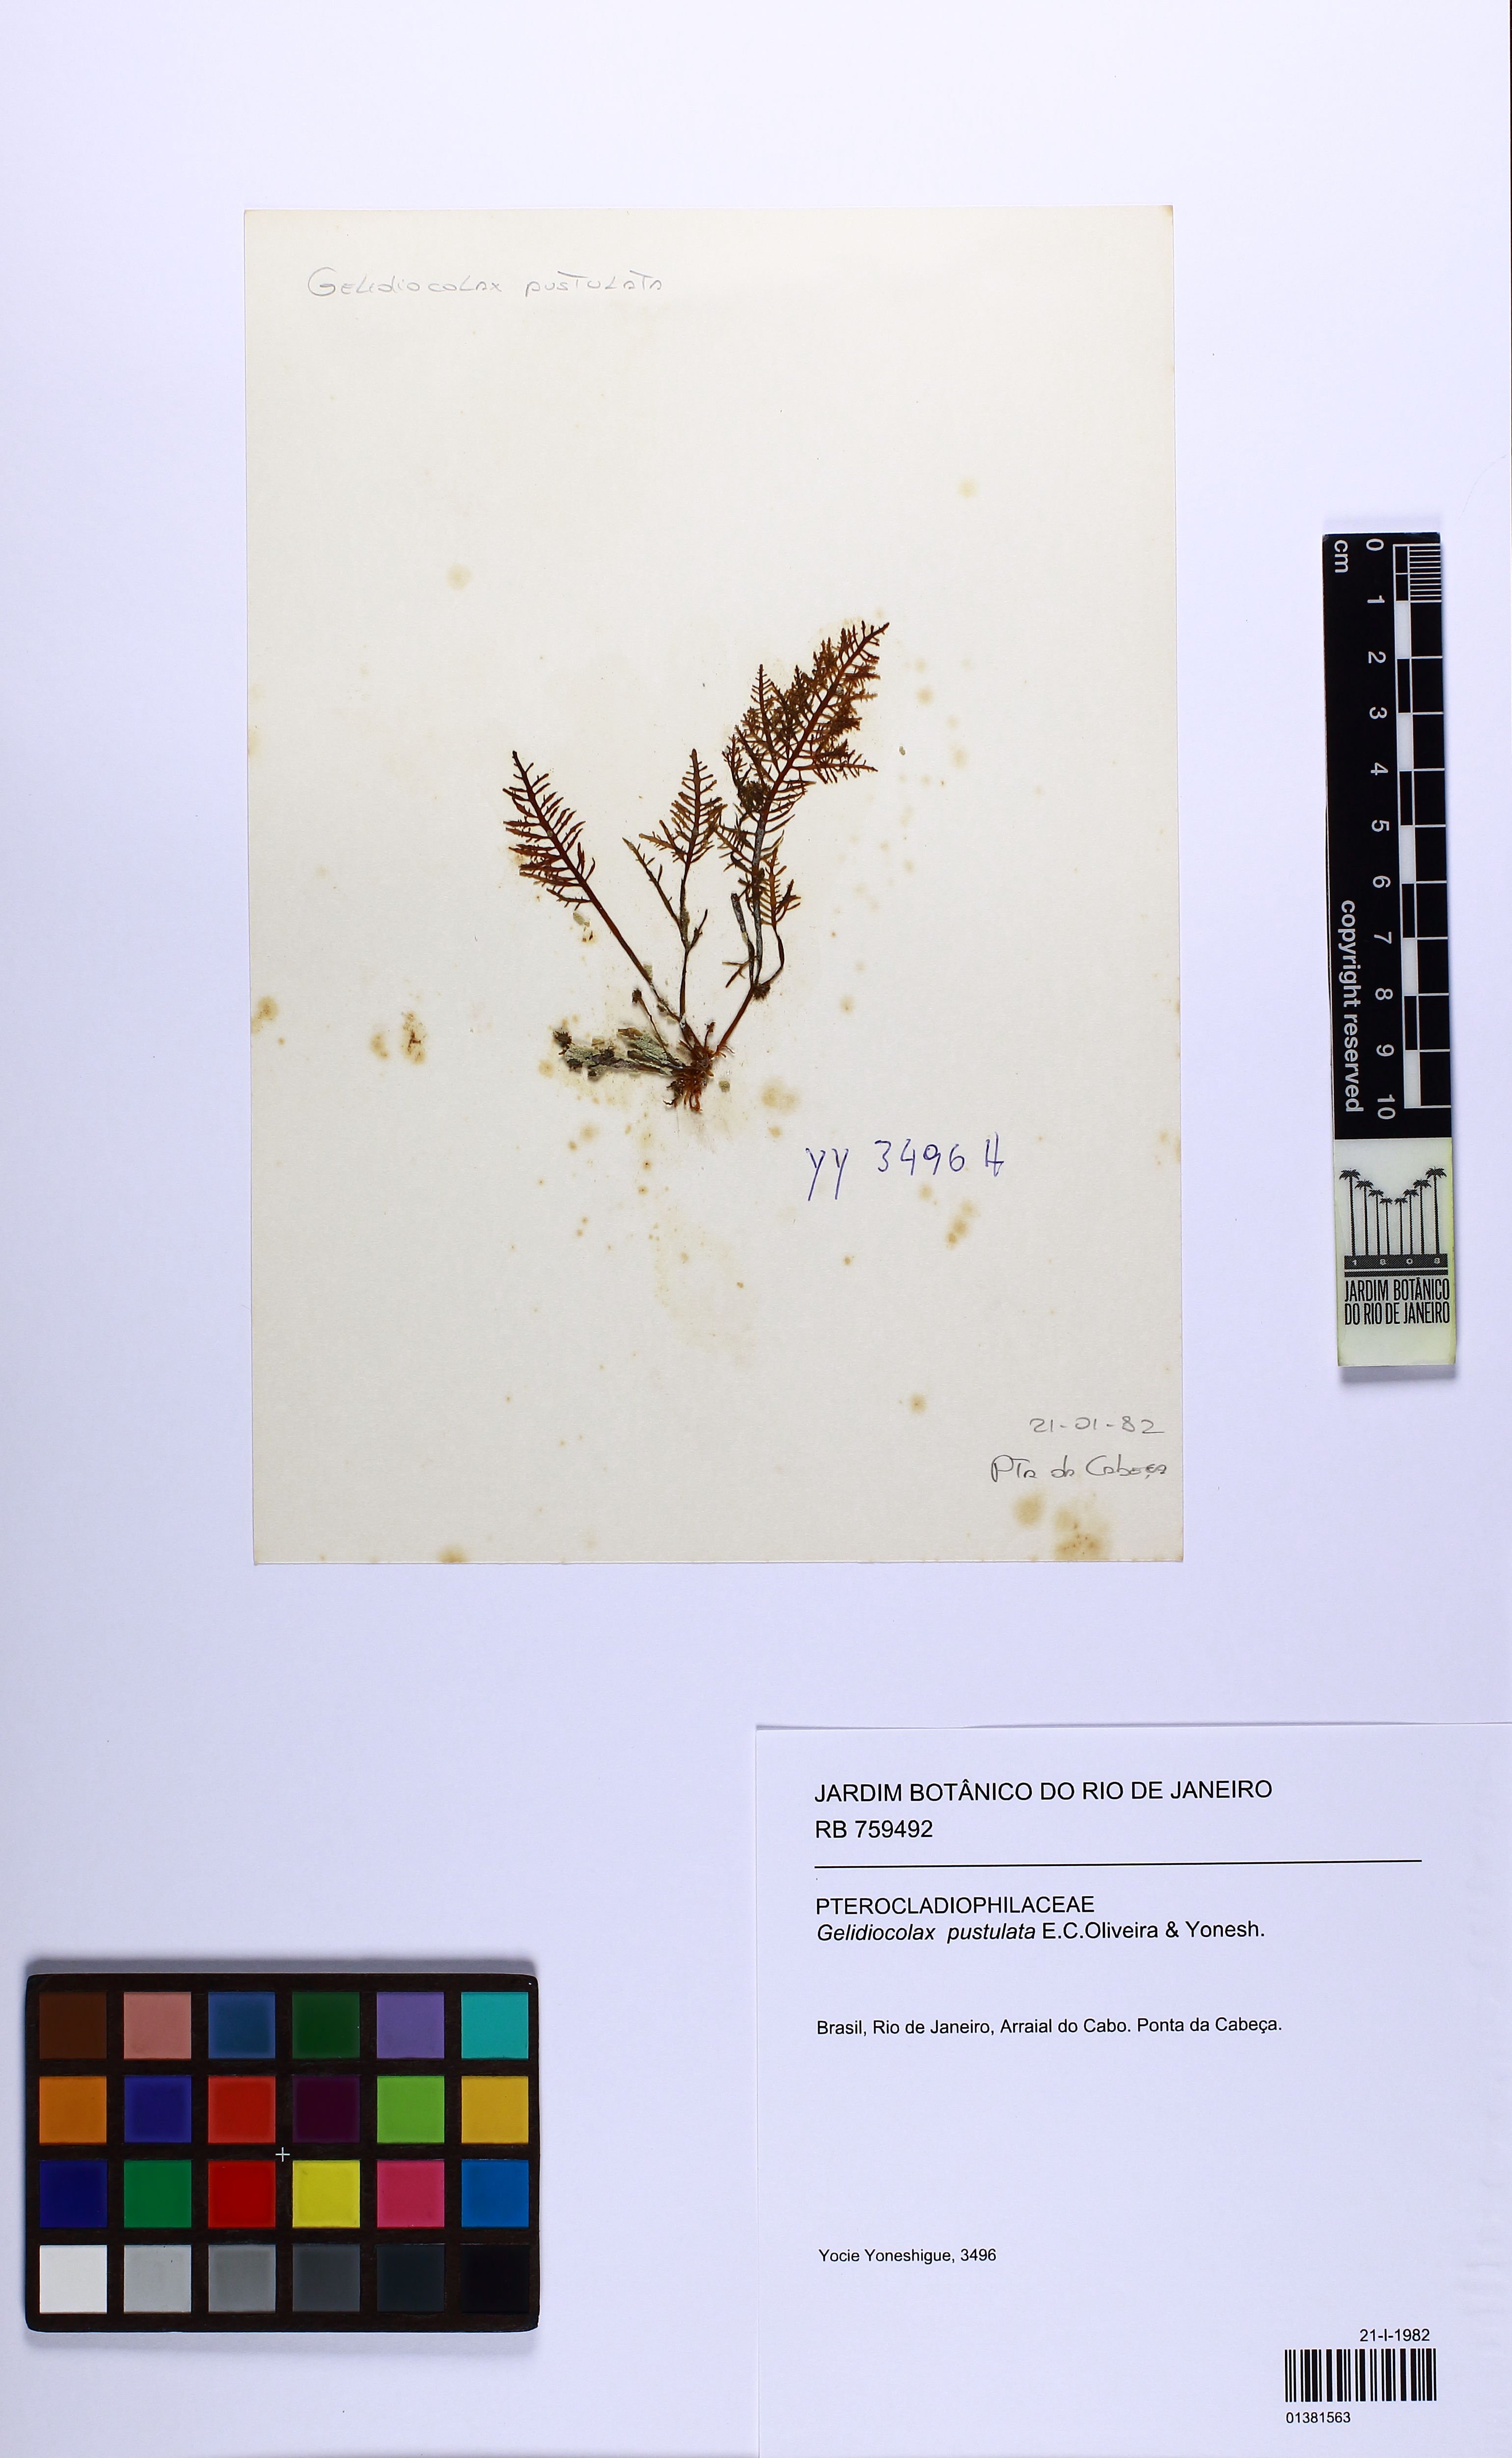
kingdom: Plantae
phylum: Rhodophyta
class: Florideophyceae
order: Gracilariales
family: Pterocladiophilaceae
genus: Gelidiocolax
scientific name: Gelidiocolax pustulata
